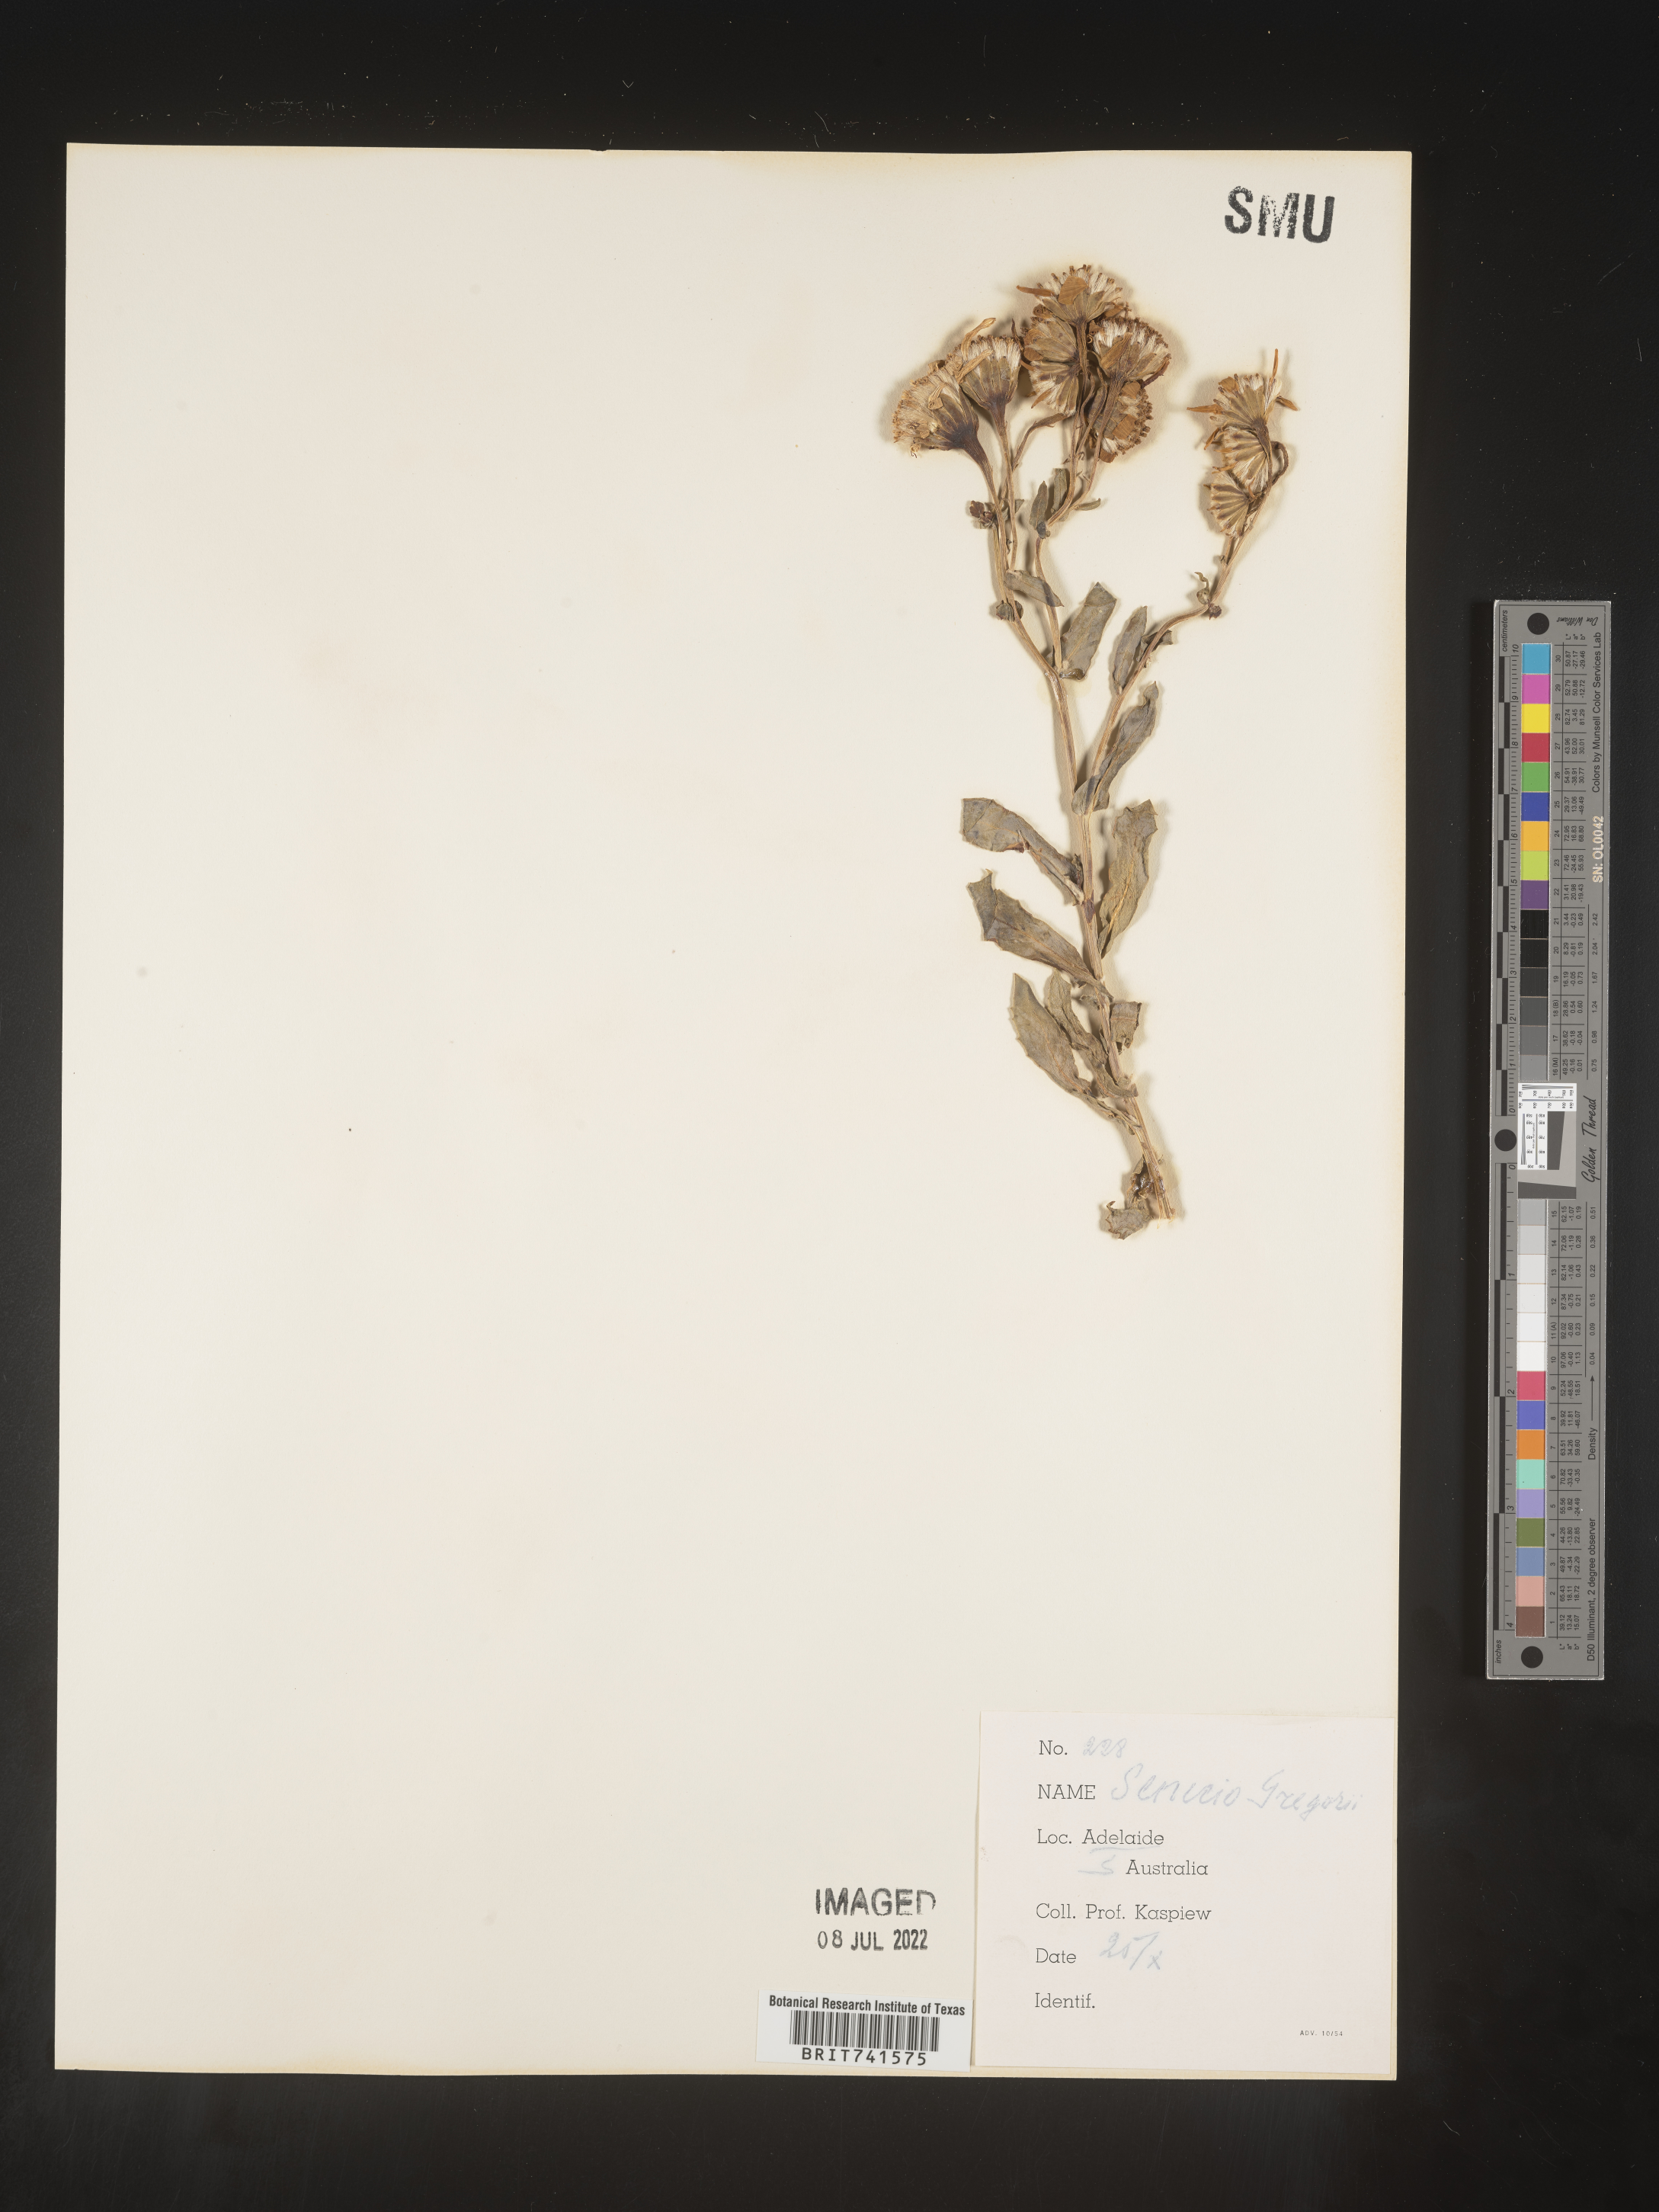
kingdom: Plantae
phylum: Tracheophyta
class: Magnoliopsida
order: Asterales
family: Asteraceae
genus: Senecio
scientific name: Senecio
